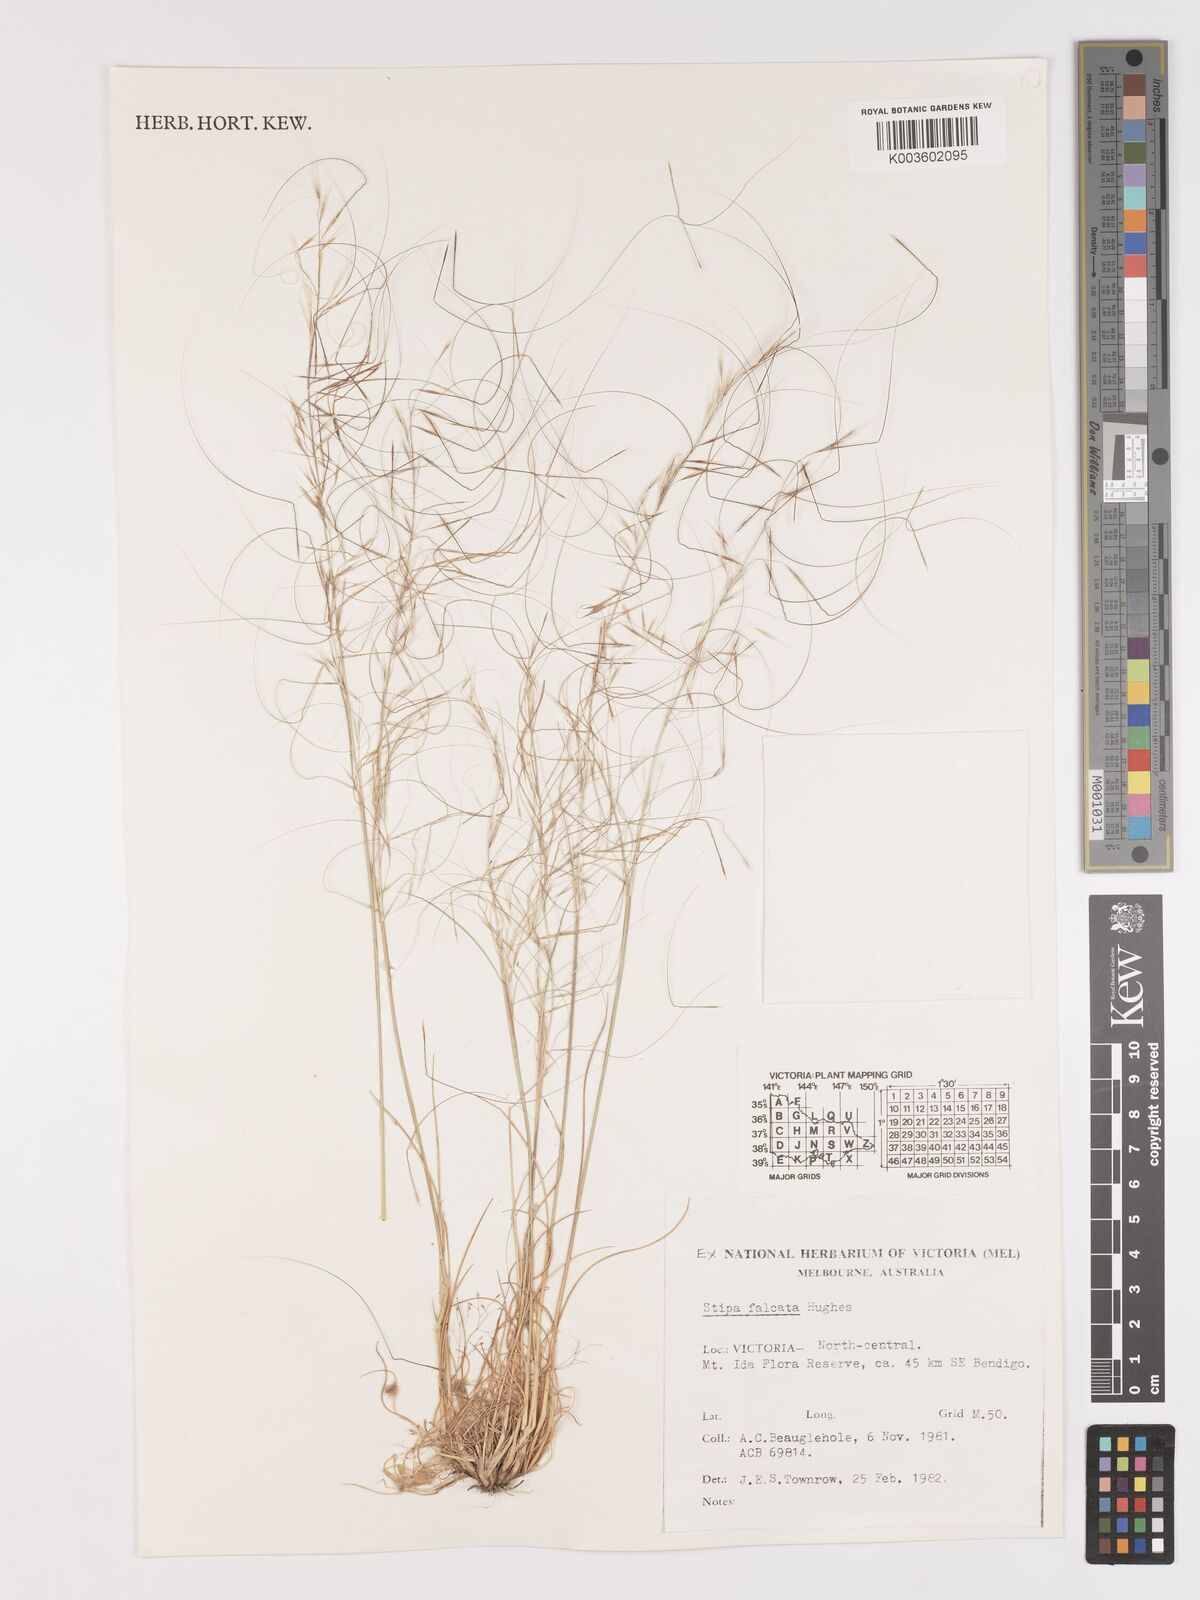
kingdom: Plantae
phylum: Tracheophyta
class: Liliopsida
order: Poales
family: Poaceae
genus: Austrostipa
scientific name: Austrostipa scabra
